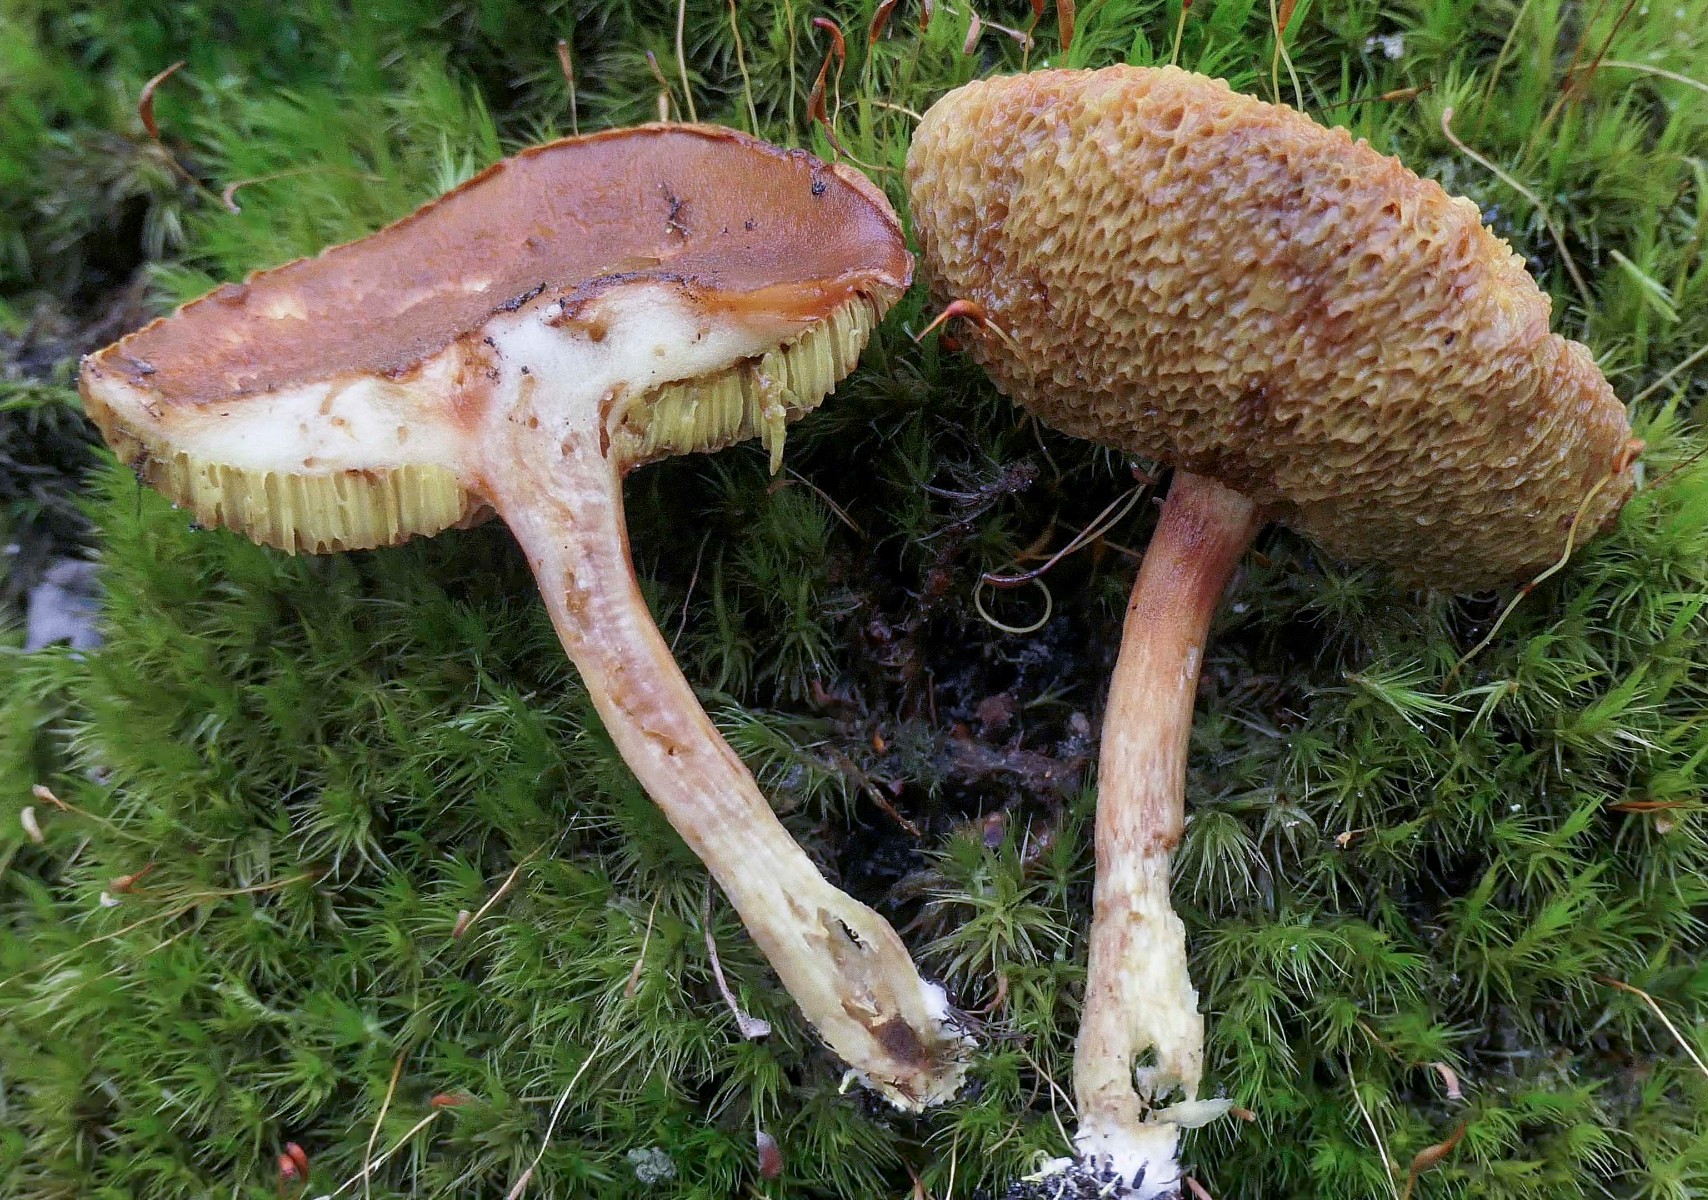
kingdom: Fungi
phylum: Basidiomycota
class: Agaricomycetes
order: Boletales
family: Boletaceae
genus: Xerocomus
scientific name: Xerocomus ferrugineus
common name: vaskeskinds-rørhat
